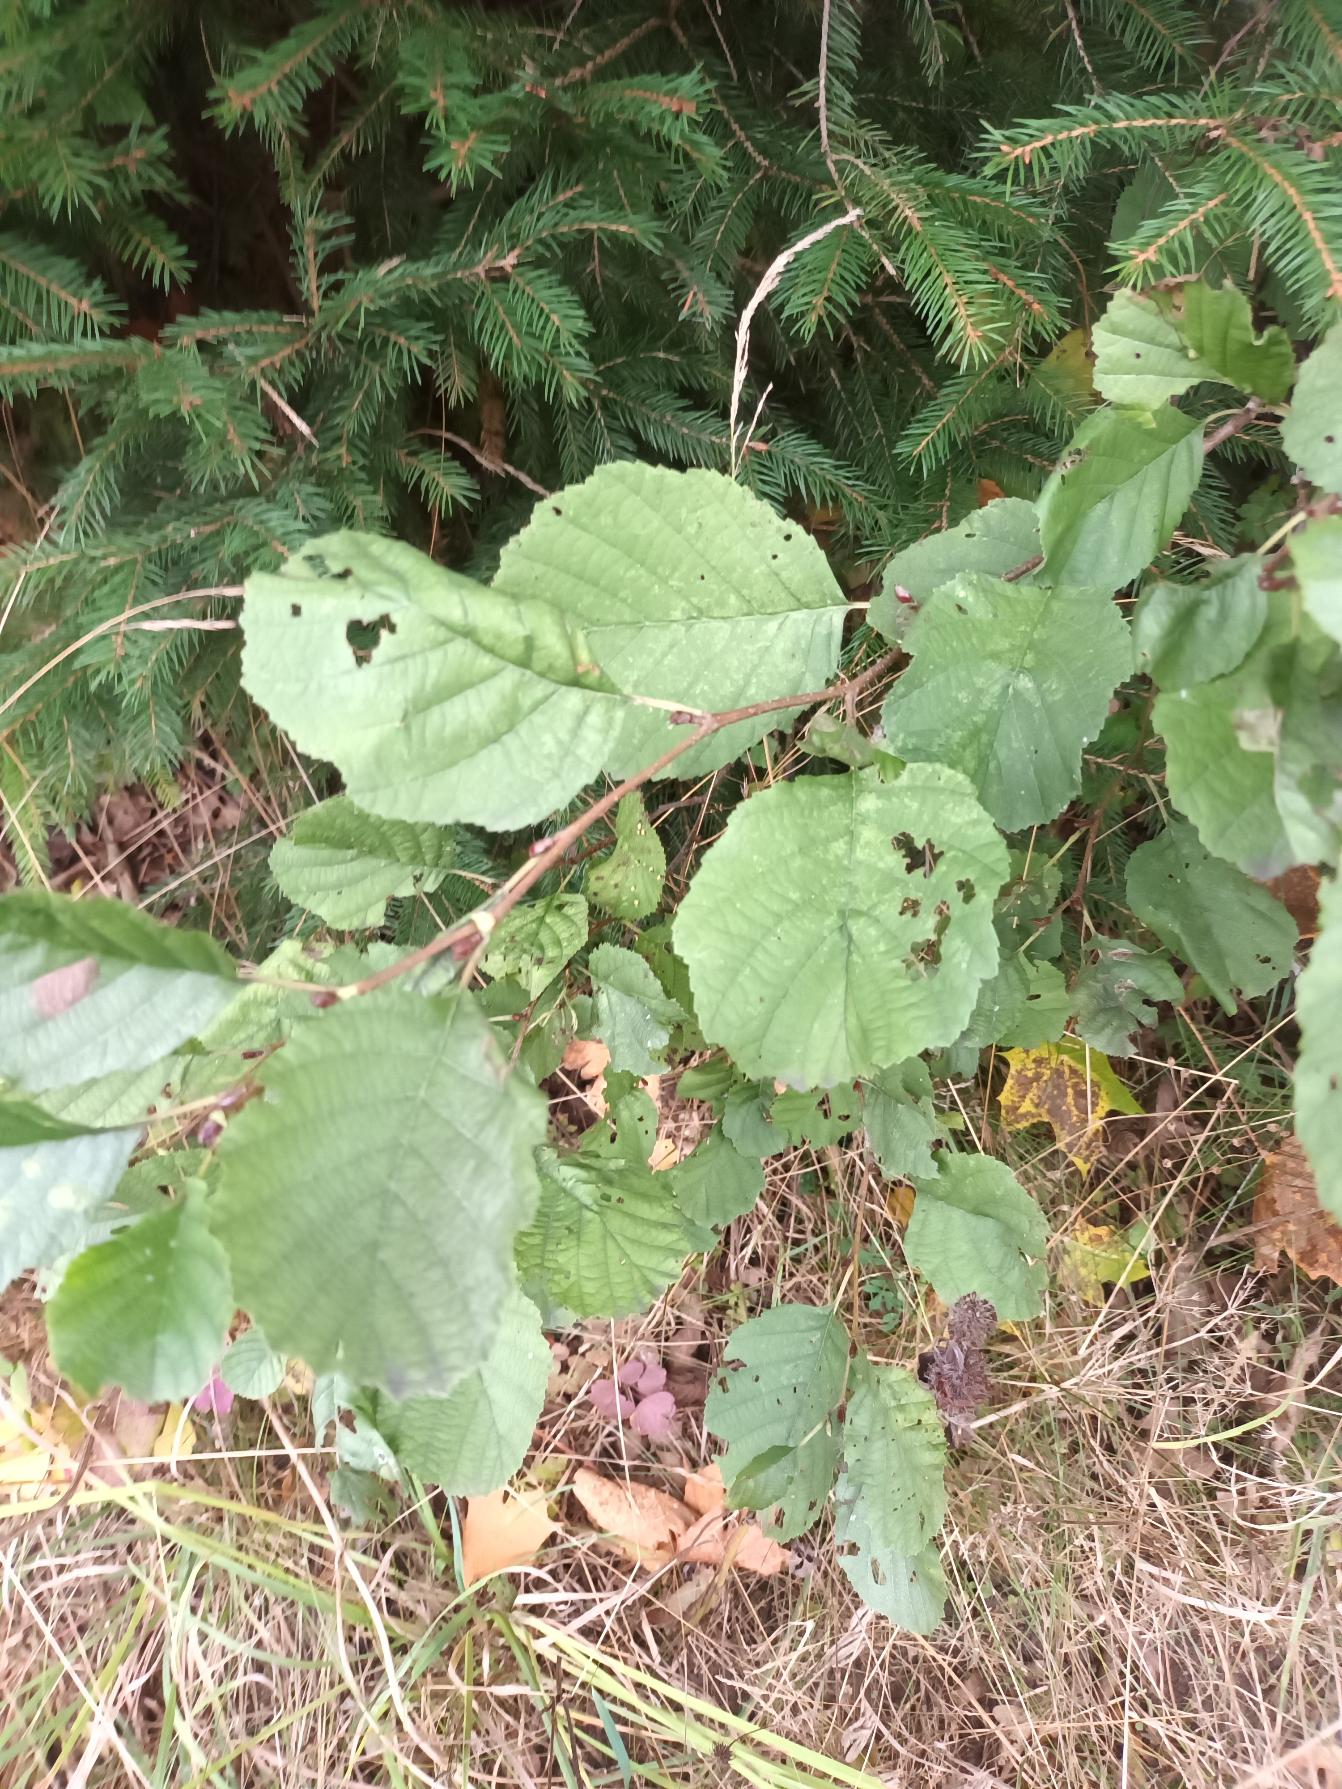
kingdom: Plantae
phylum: Tracheophyta
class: Magnoliopsida
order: Fagales
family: Betulaceae
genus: Alnus
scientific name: Alnus glutinosa
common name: Rød-el
